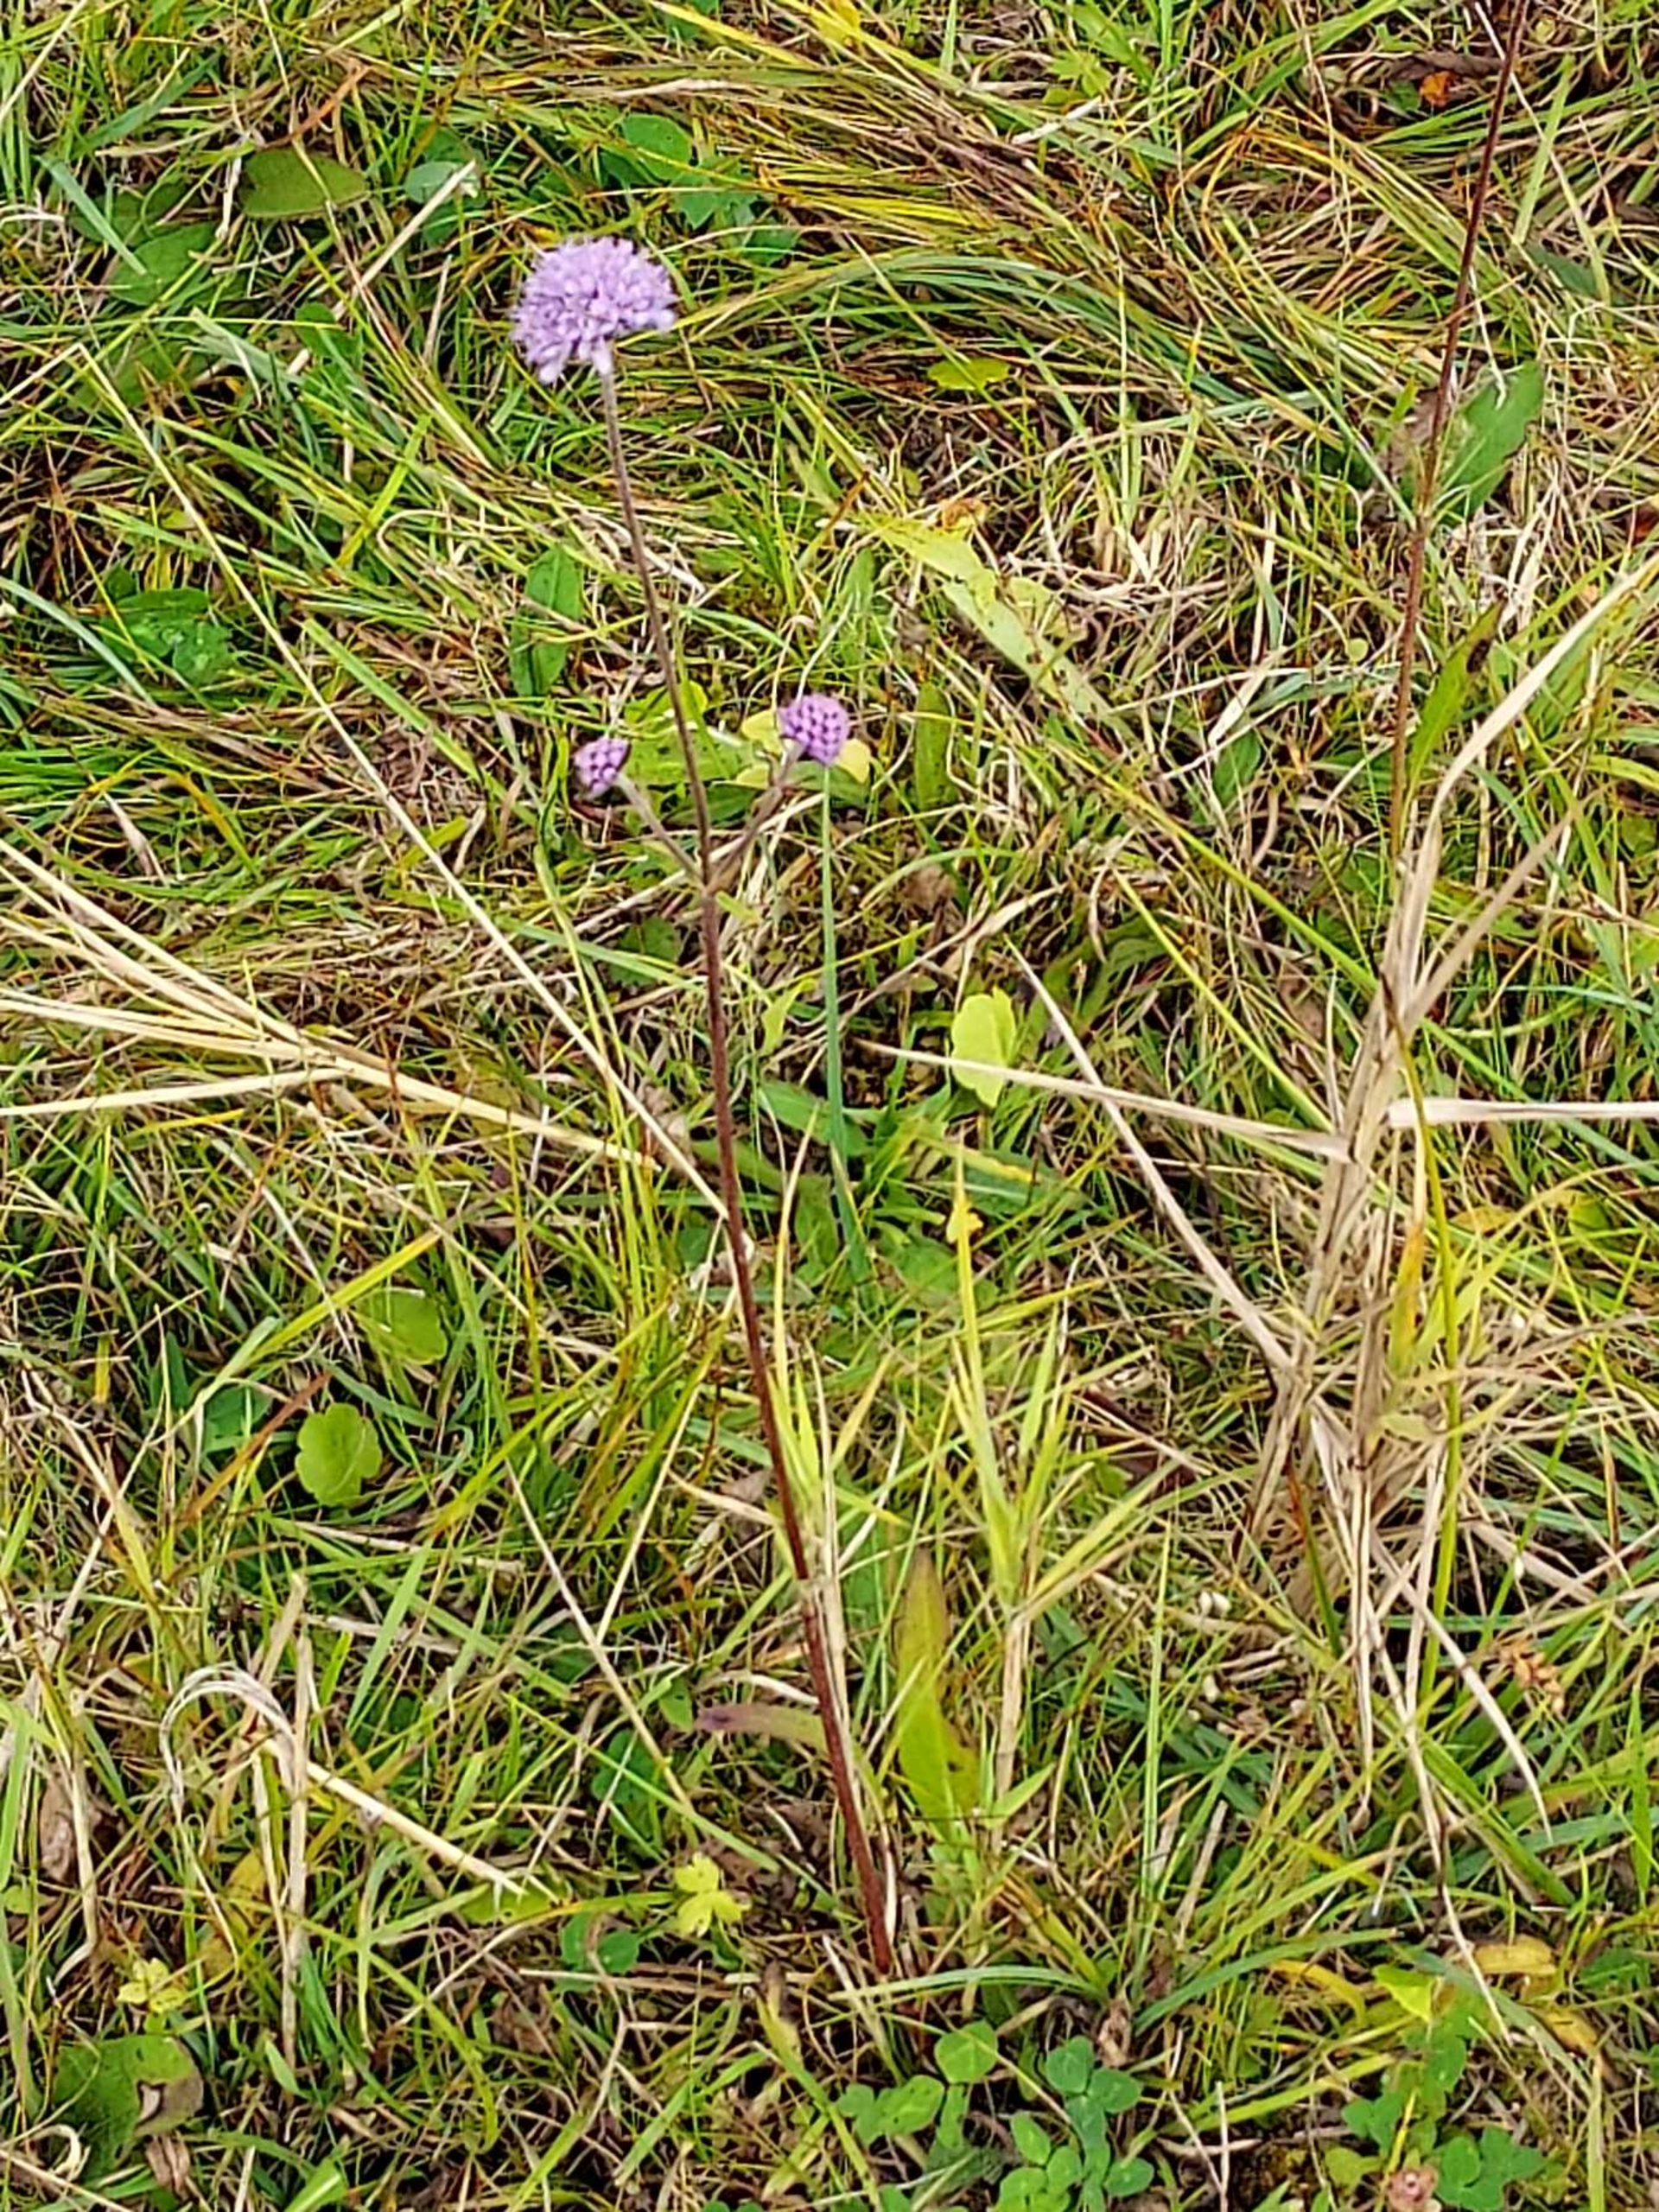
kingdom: Plantae
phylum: Tracheophyta
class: Magnoliopsida
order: Dipsacales
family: Caprifoliaceae
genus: Succisa
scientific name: Succisa pratensis
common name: Djævelsbid
